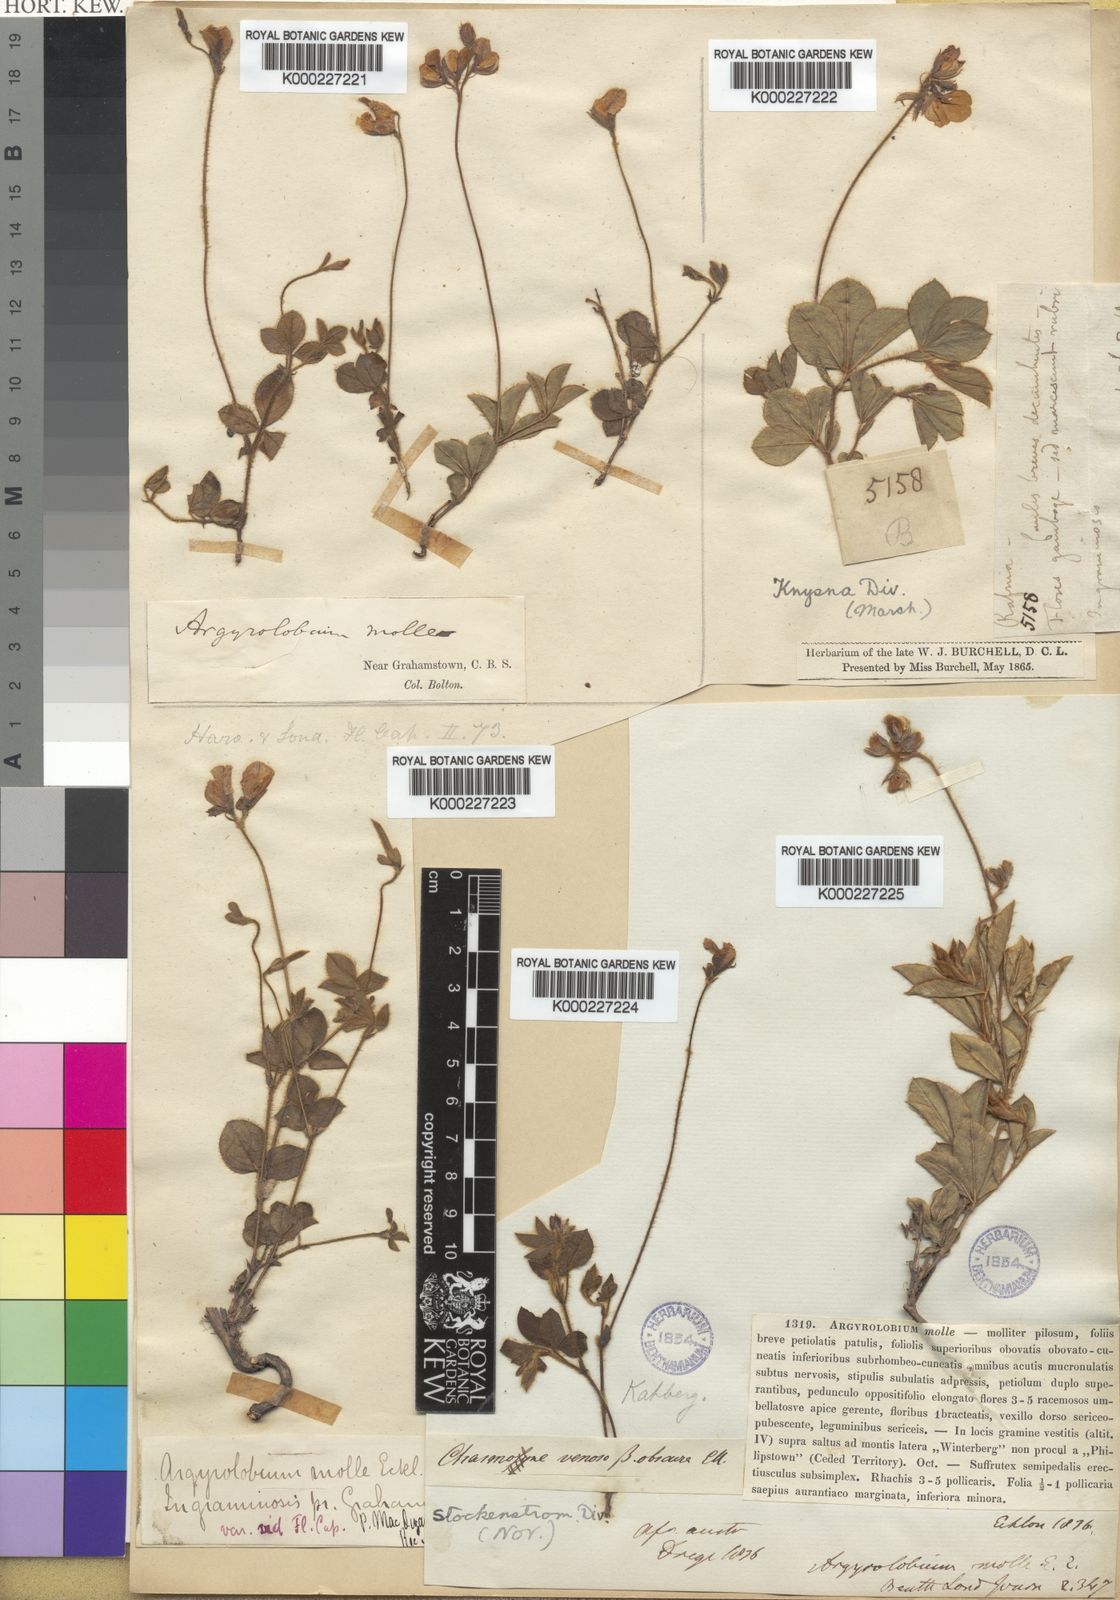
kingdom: Plantae
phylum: Tracheophyta
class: Magnoliopsida
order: Fabales
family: Fabaceae
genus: Argyrolobium
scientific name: Argyrolobium molle
